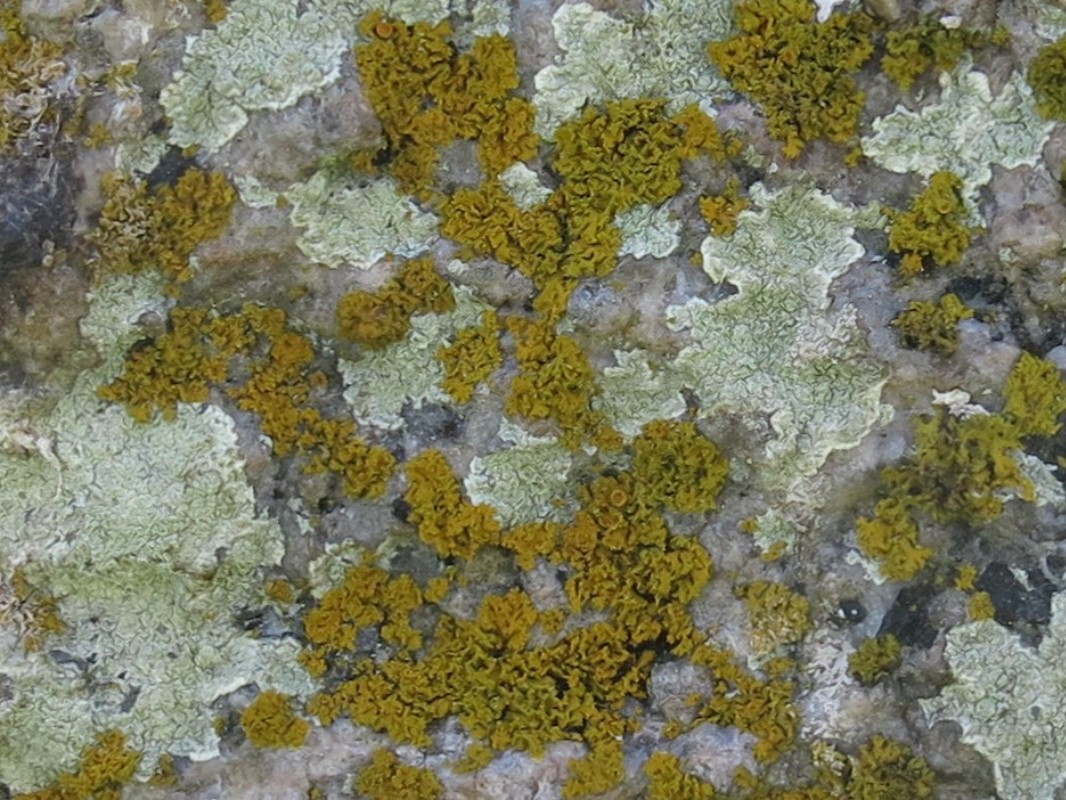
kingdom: Fungi
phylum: Ascomycota
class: Lecanoromycetes
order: Teloschistales
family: Teloschistaceae
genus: Polycauliona
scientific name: Polycauliona candelaria
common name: tue-orangelav
